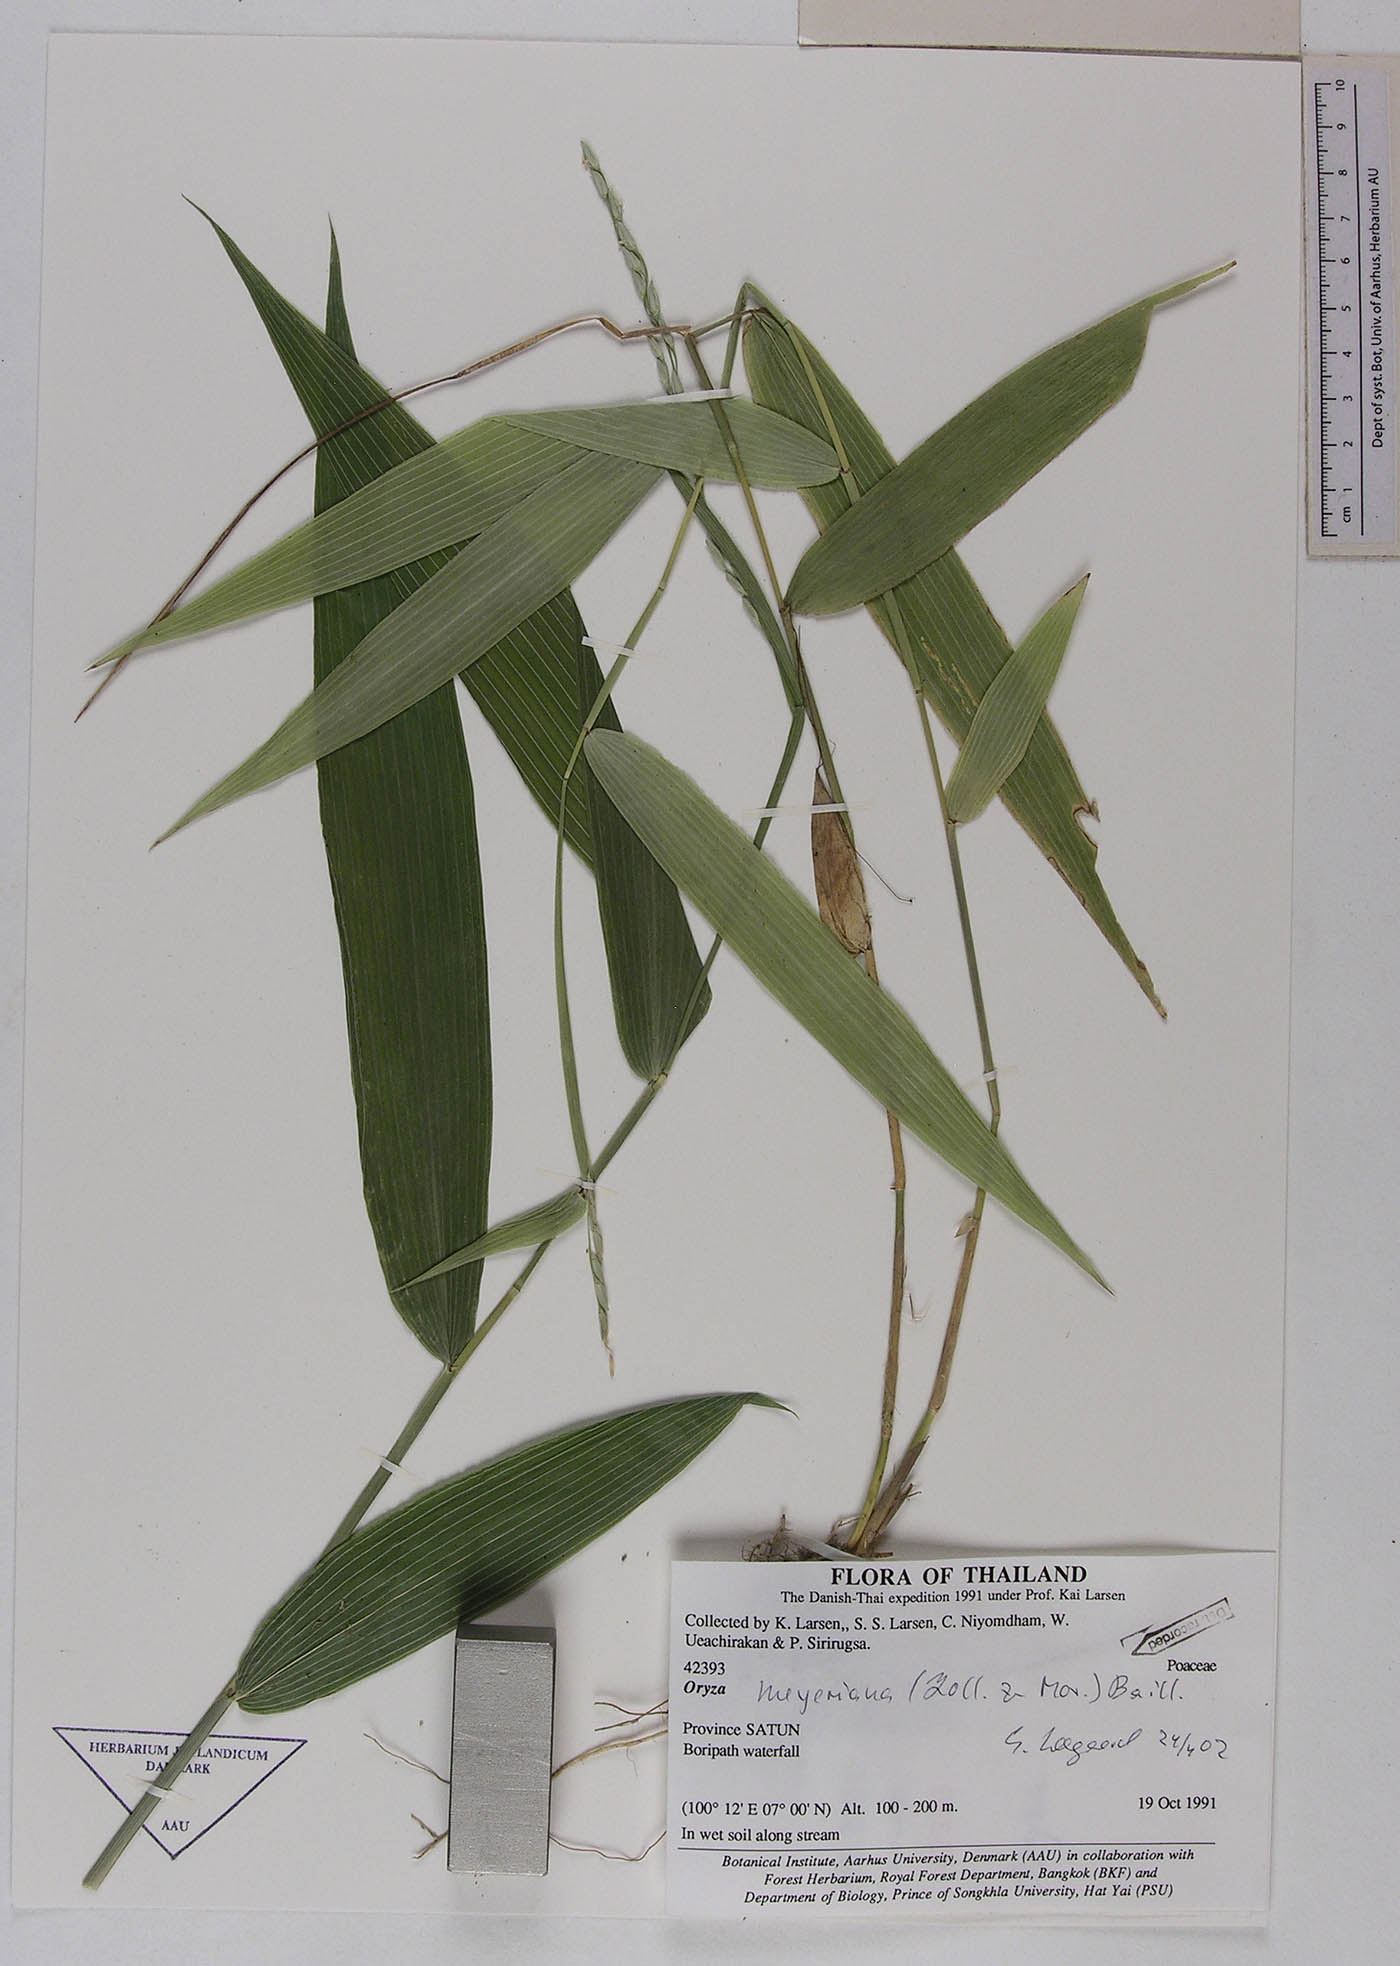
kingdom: Plantae
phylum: Tracheophyta
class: Liliopsida
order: Poales
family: Poaceae
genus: Oryza
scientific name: Oryza meyeriana
